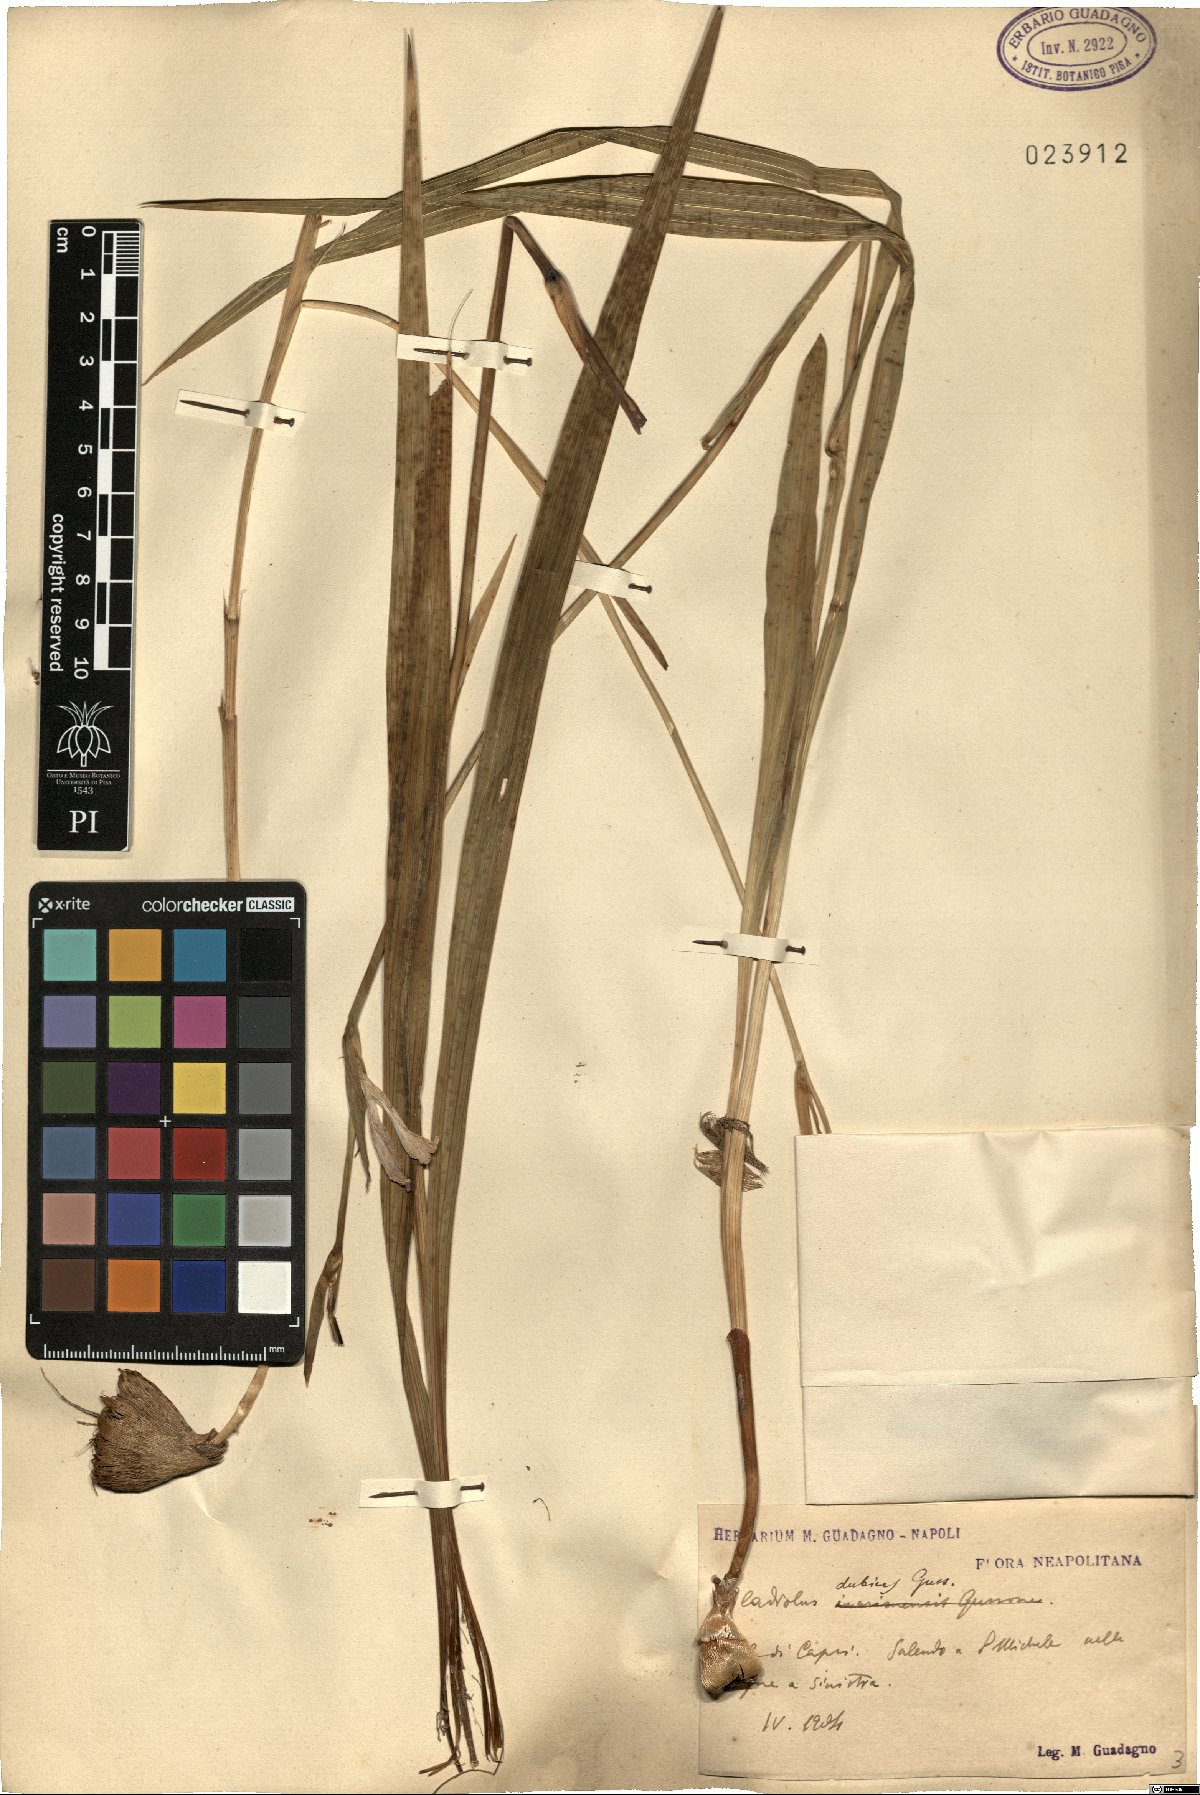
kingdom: Plantae
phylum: Tracheophyta
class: Liliopsida
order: Asparagales
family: Iridaceae
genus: Gladiolus
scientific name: Gladiolus dubius
